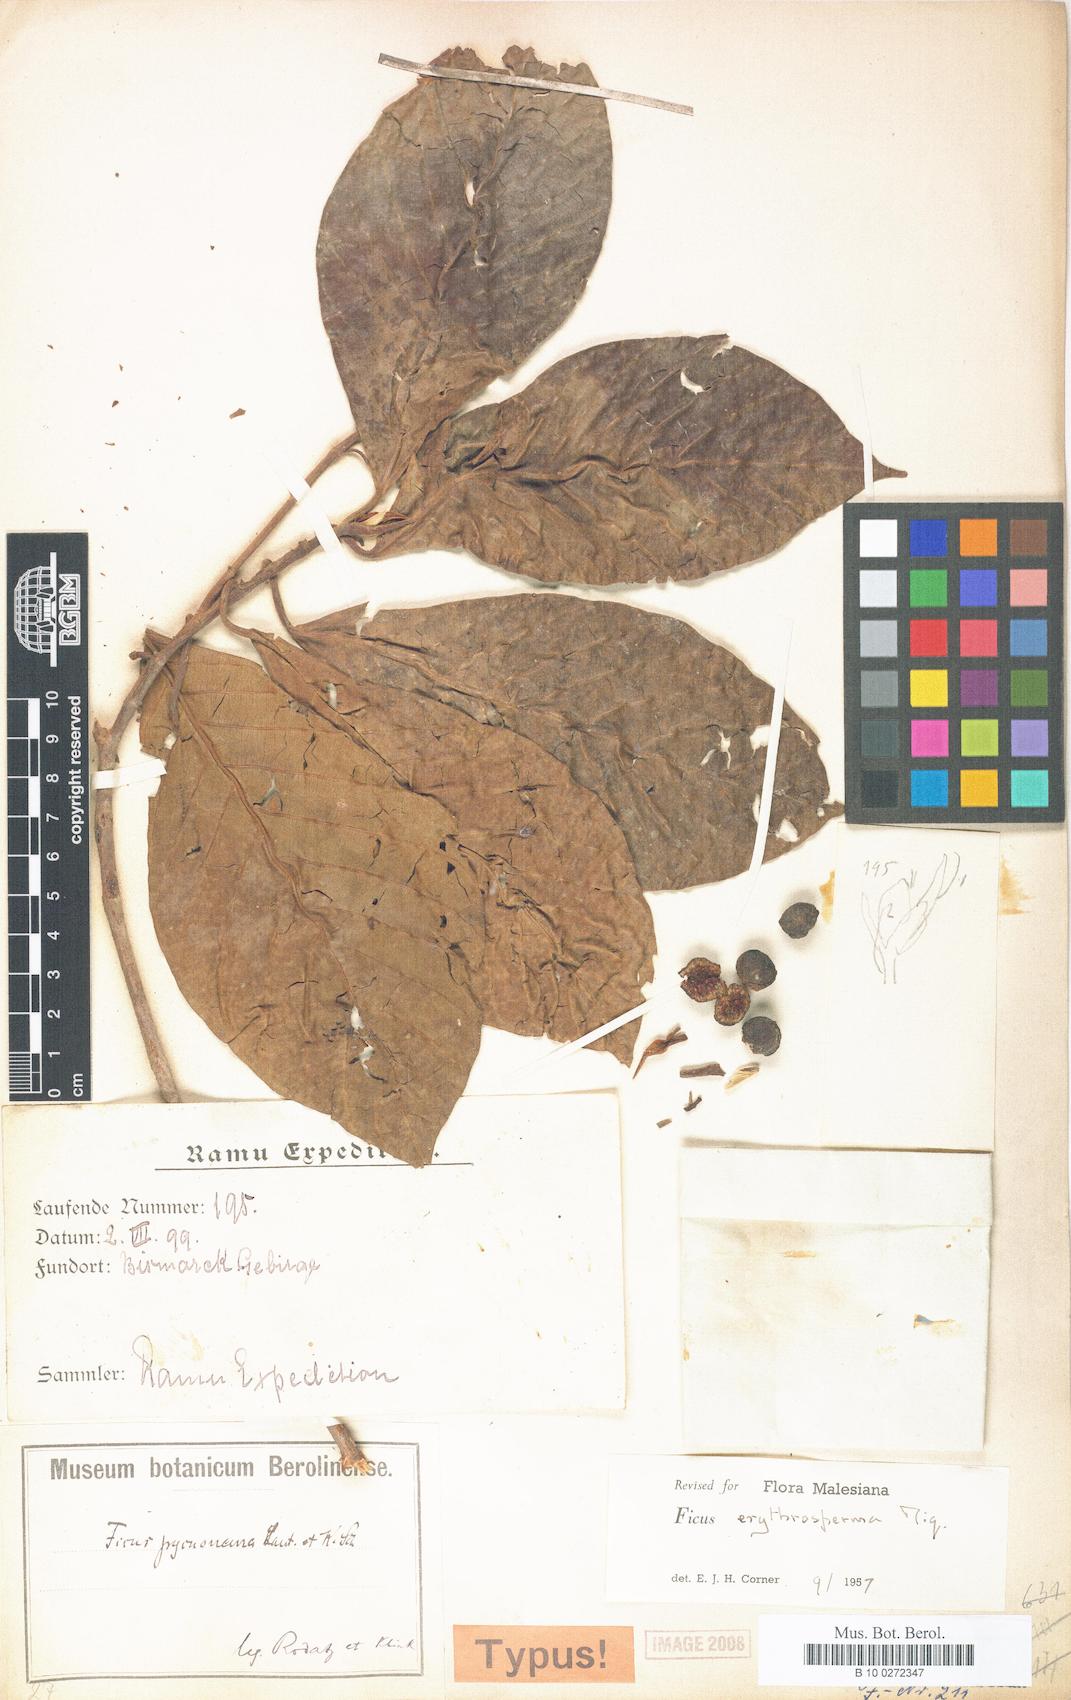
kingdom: Plantae
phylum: Tracheophyta
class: Magnoliopsida
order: Rosales
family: Moraceae
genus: Ficus
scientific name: Ficus erythrosperma
